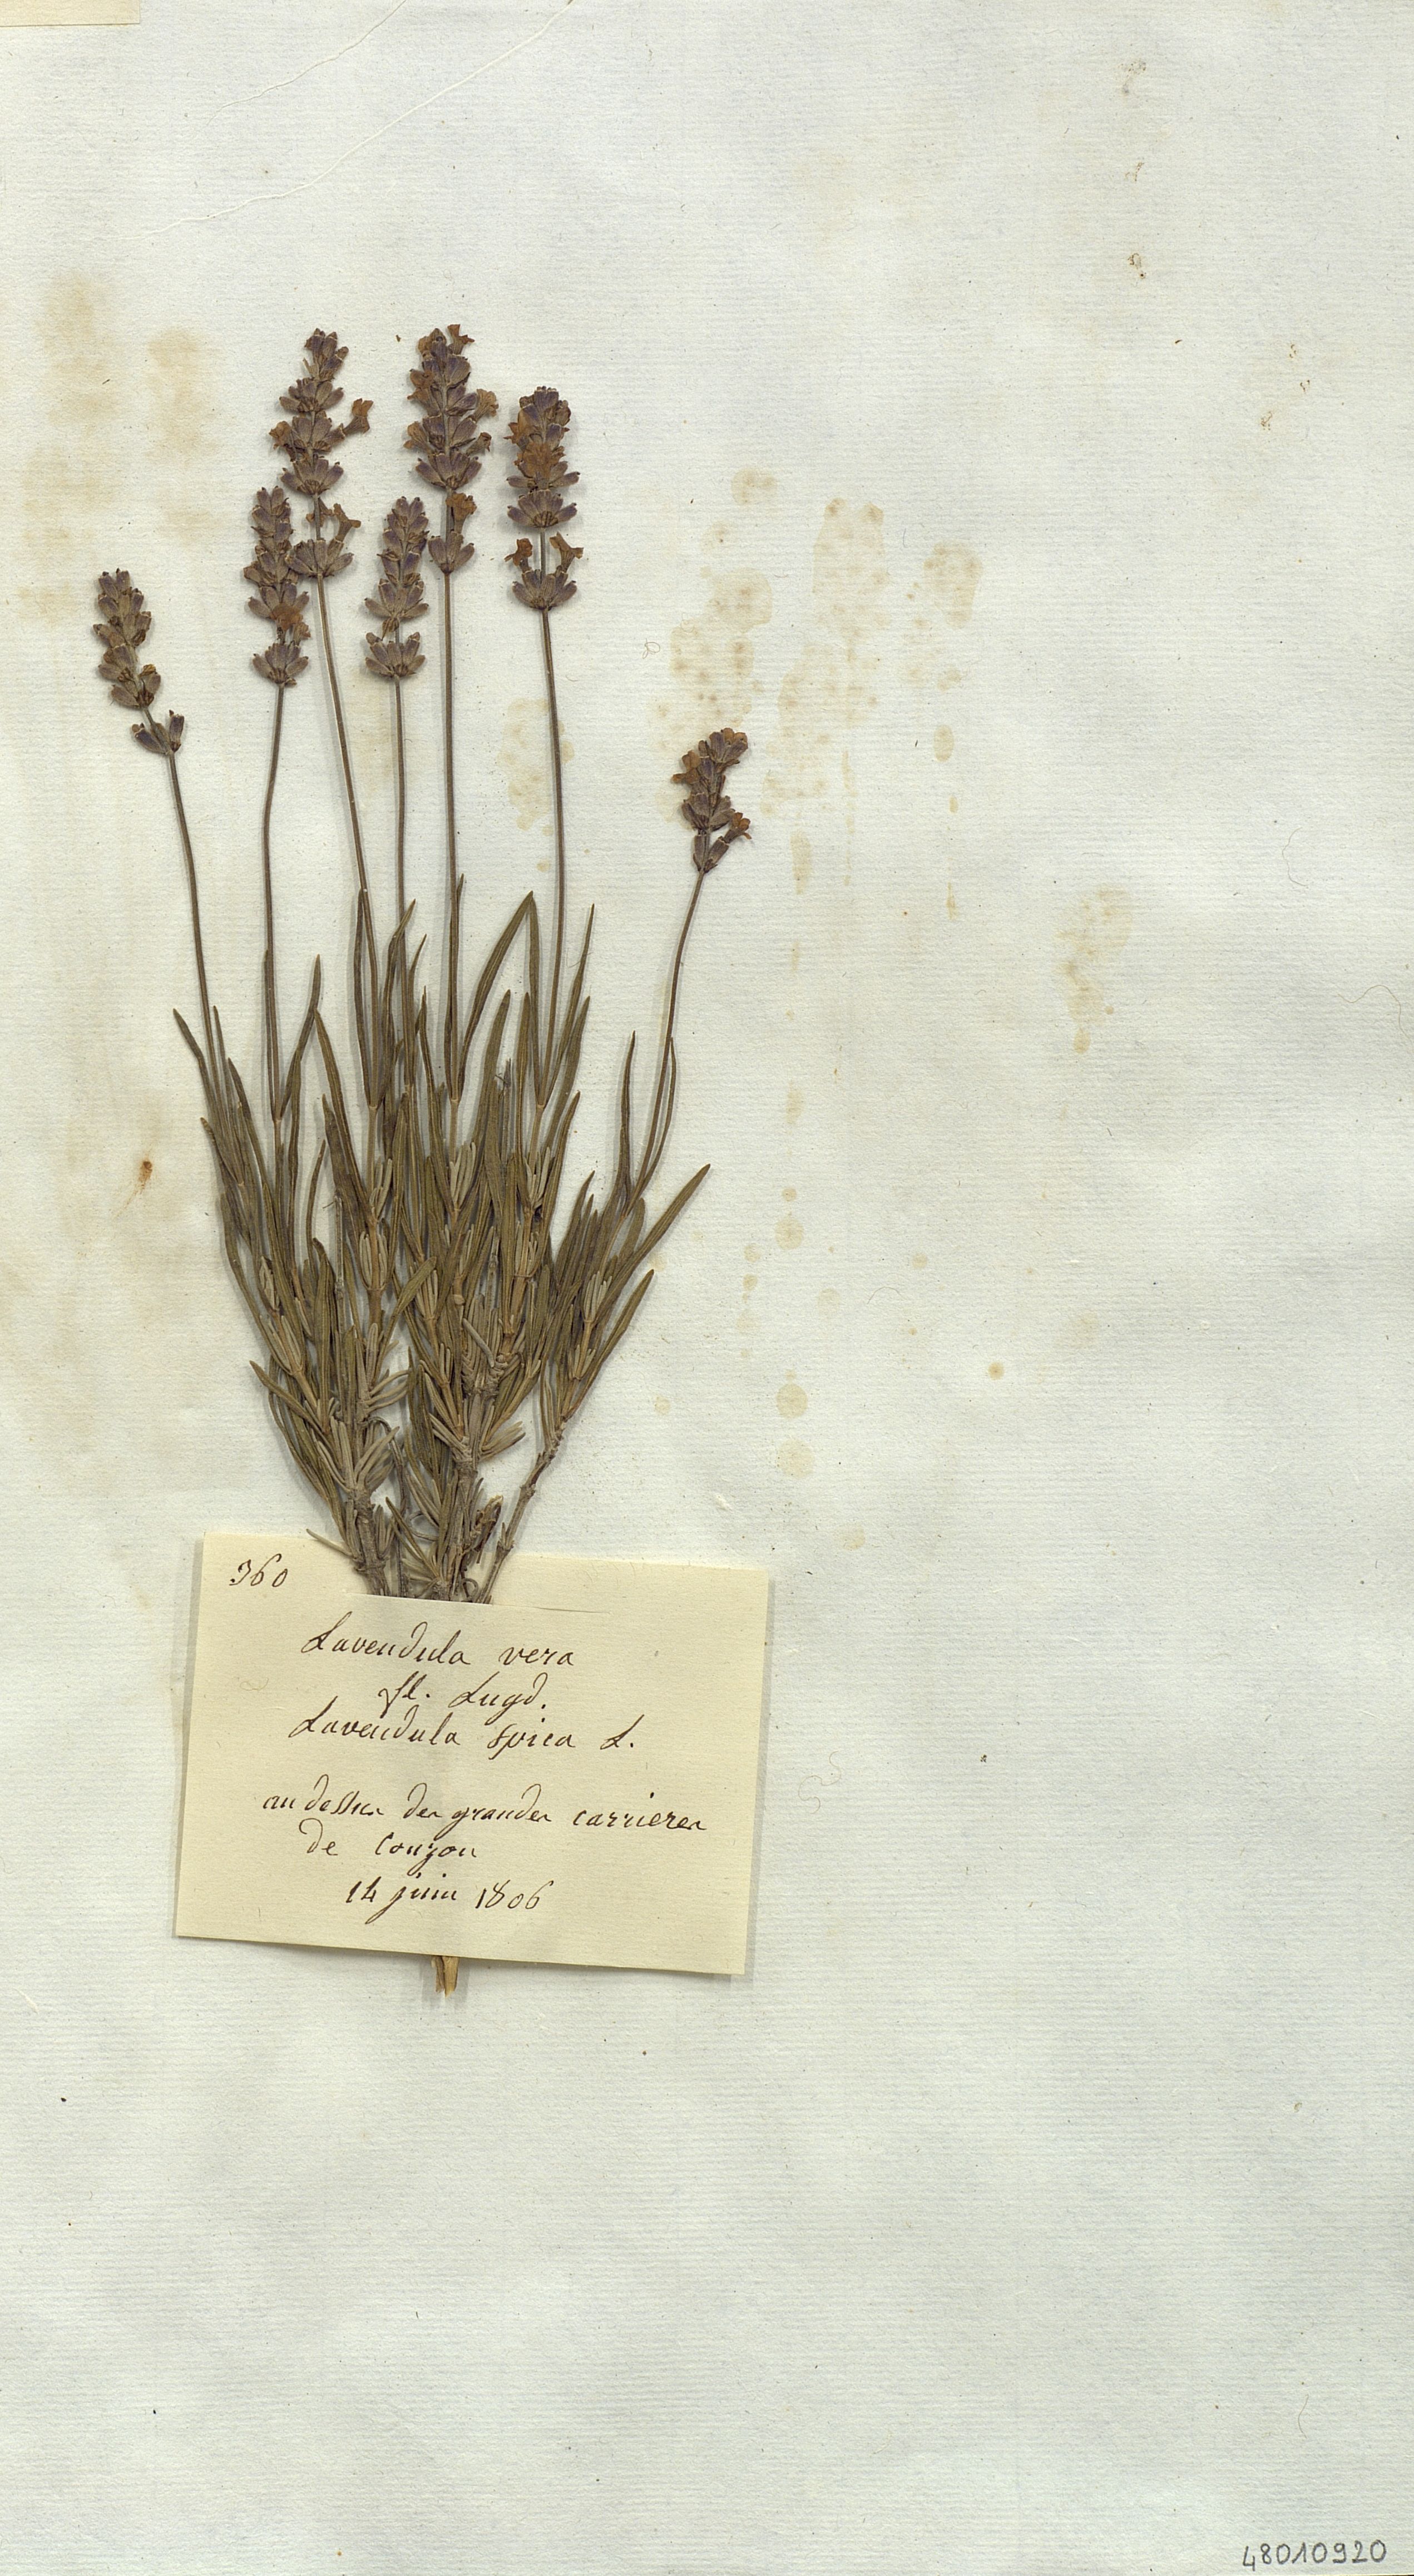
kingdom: Plantae
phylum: Tracheophyta
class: Magnoliopsida
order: Lamiales
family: Lamiaceae
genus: Lavandula
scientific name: Lavandula angustifolia
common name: Garden lavender
